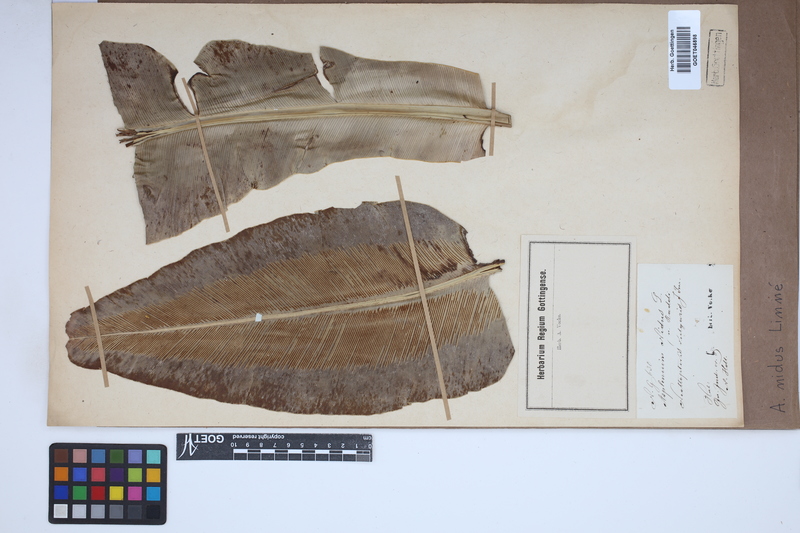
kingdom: Plantae
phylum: Tracheophyta
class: Polypodiopsida
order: Polypodiales
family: Aspleniaceae
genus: Asplenium
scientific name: Asplenium nidus
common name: Bird's-nest fern
